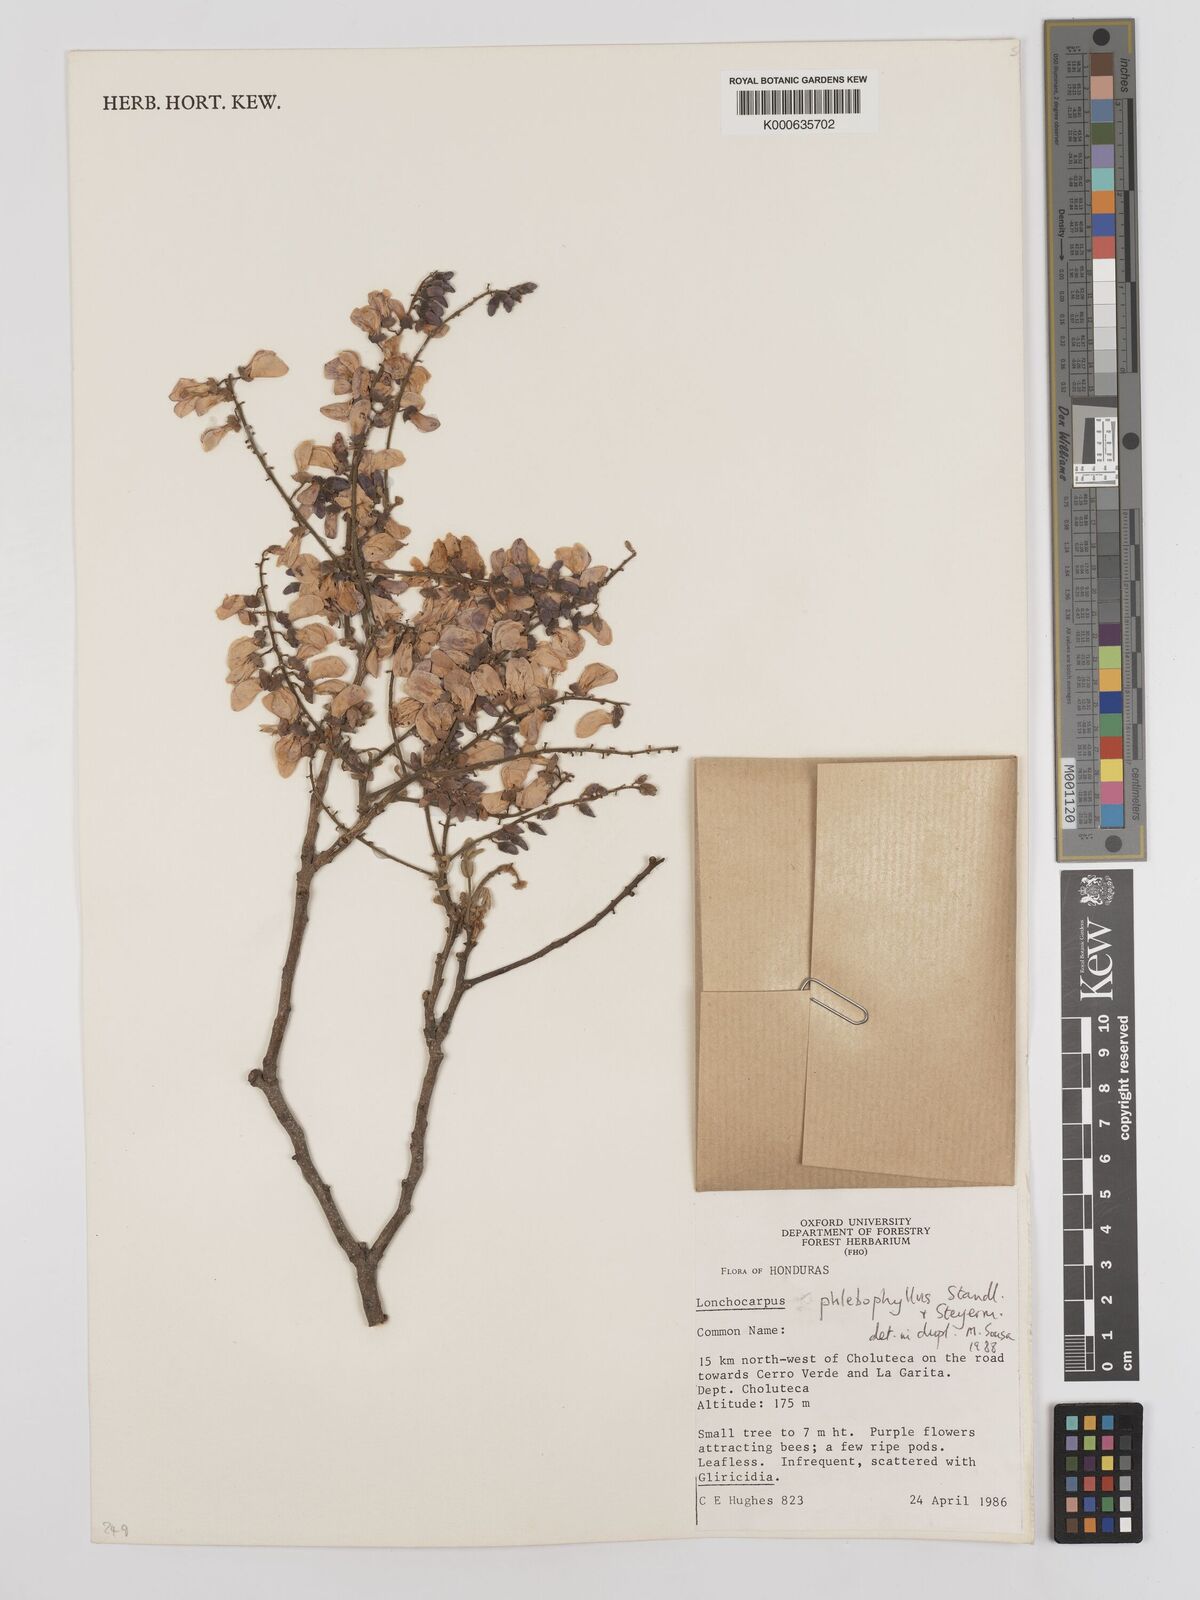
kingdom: Plantae
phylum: Tracheophyta
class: Magnoliopsida
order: Fabales
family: Fabaceae
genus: Lonchocarpus
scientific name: Lonchocarpus phlebophyllus
